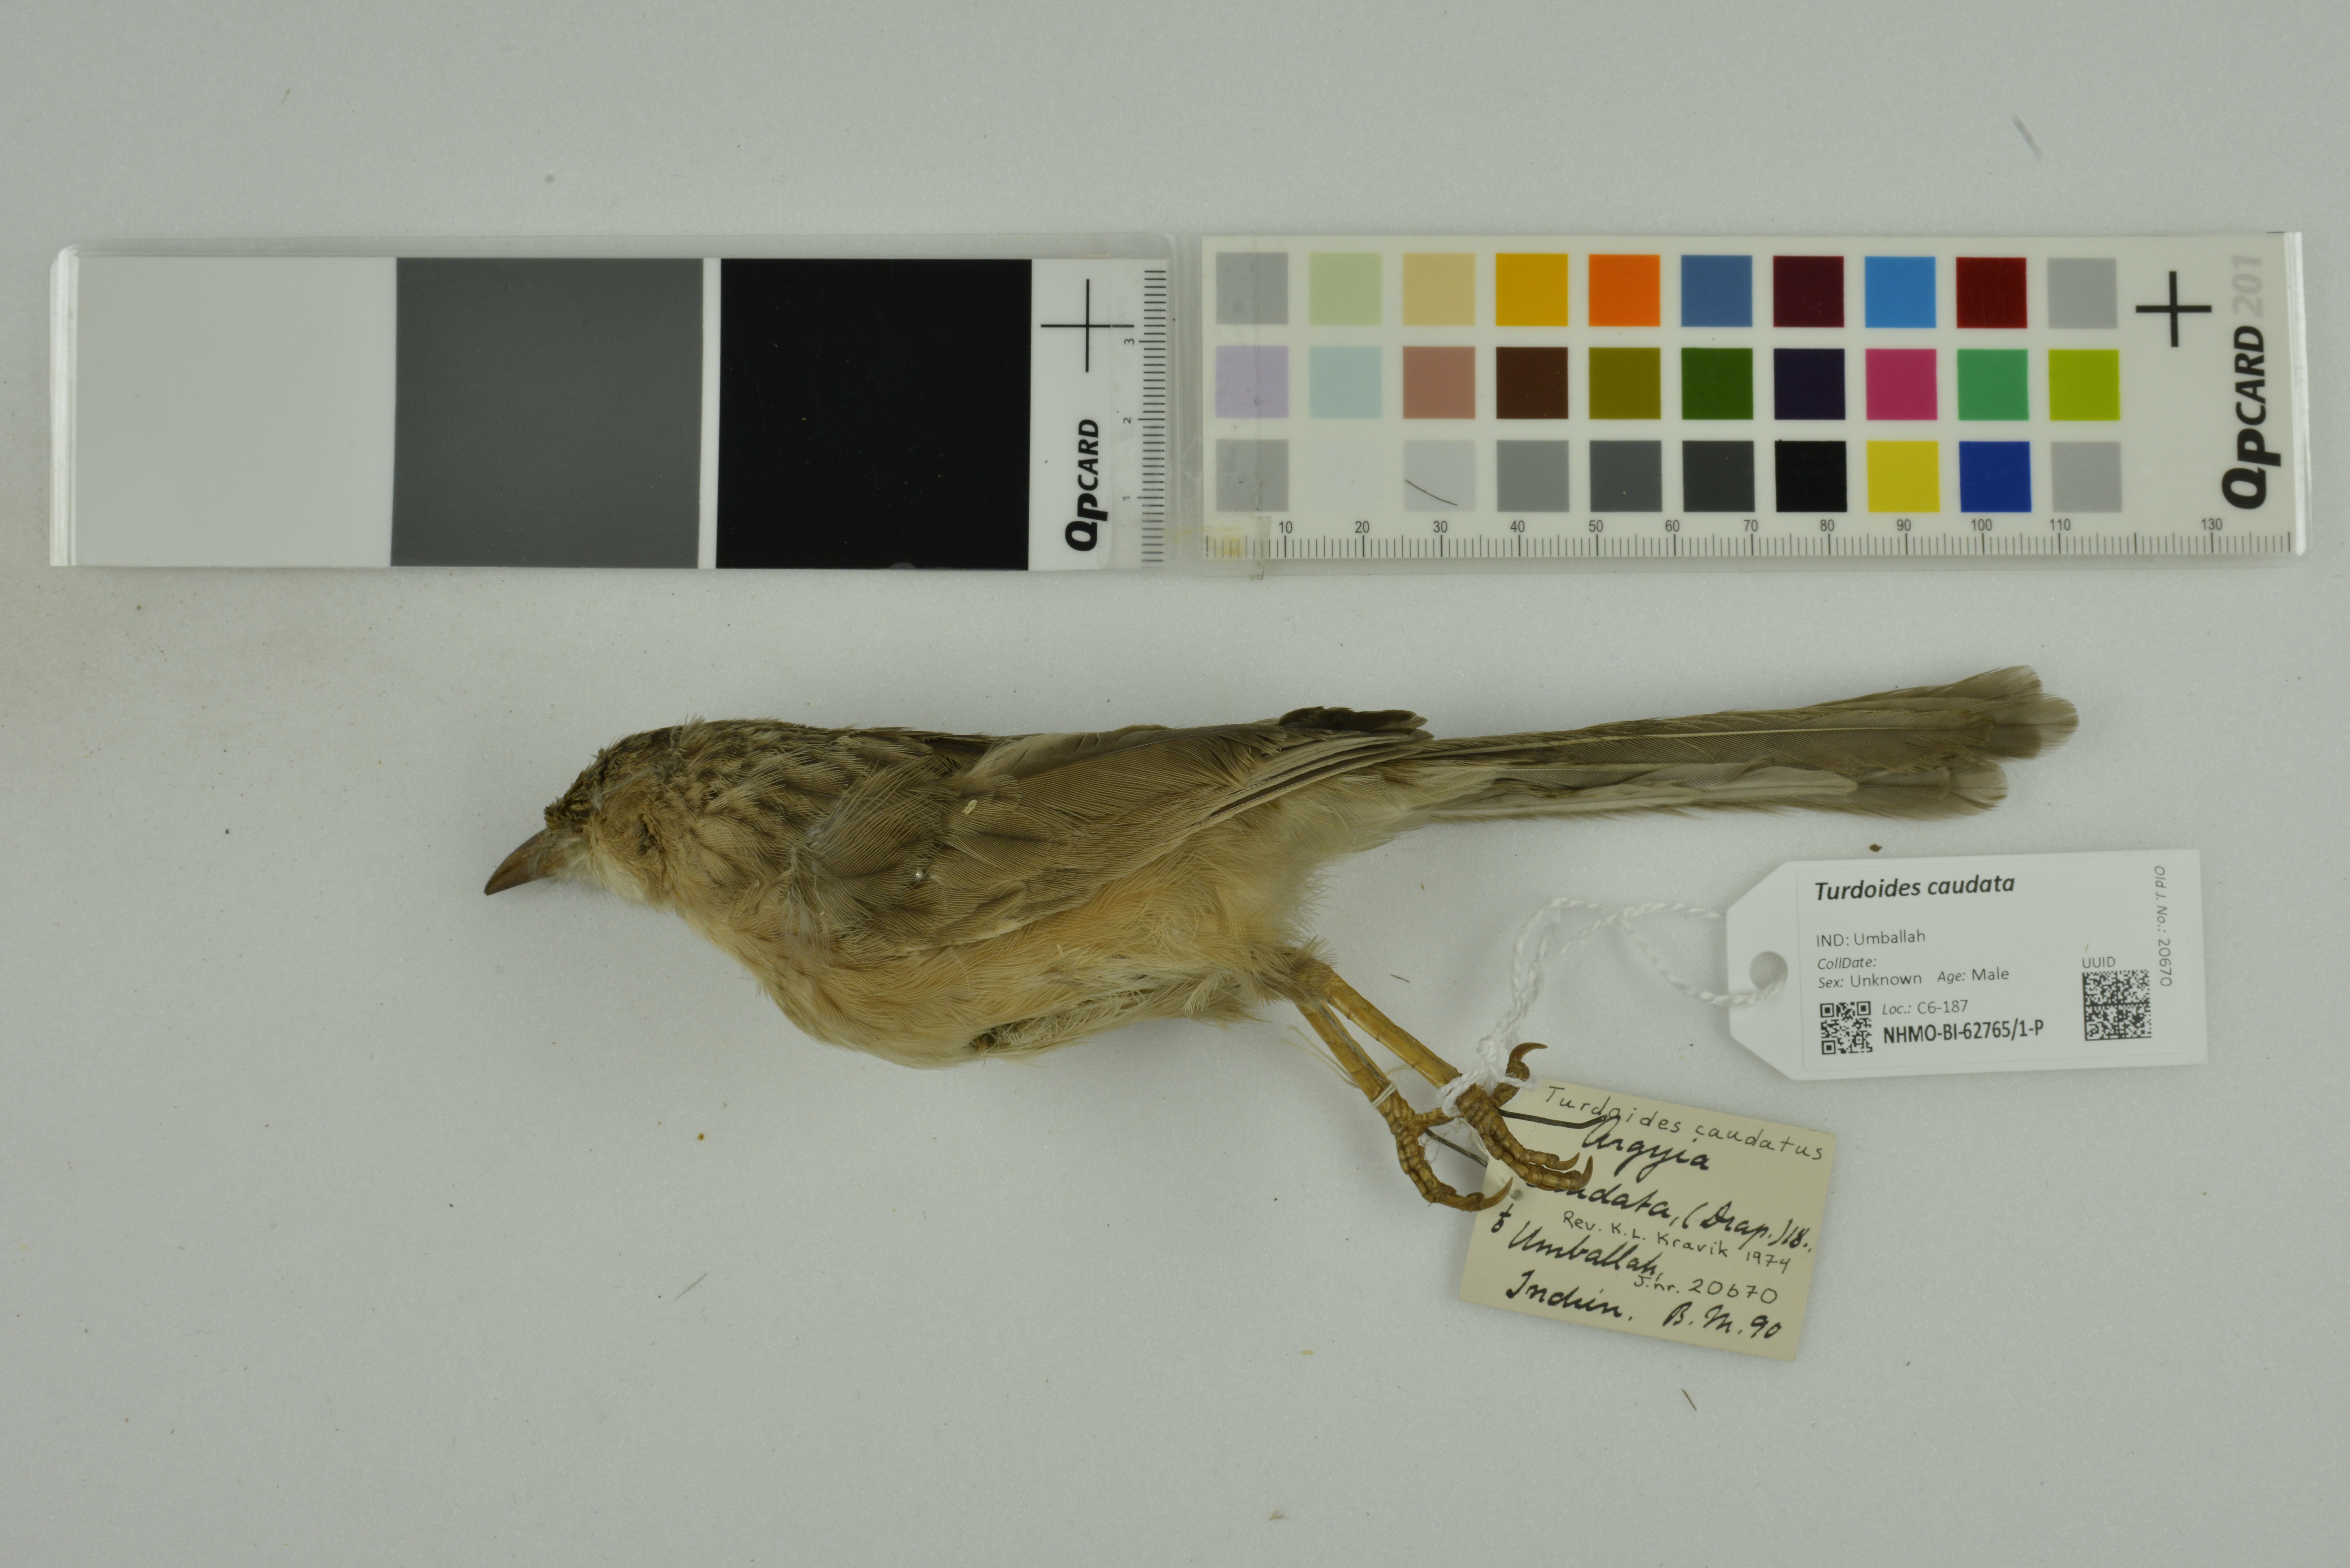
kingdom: Animalia
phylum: Chordata
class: Aves
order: Passeriformes
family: Leiothrichidae
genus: Turdoides
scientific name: Turdoides caudata
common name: Common babbler
